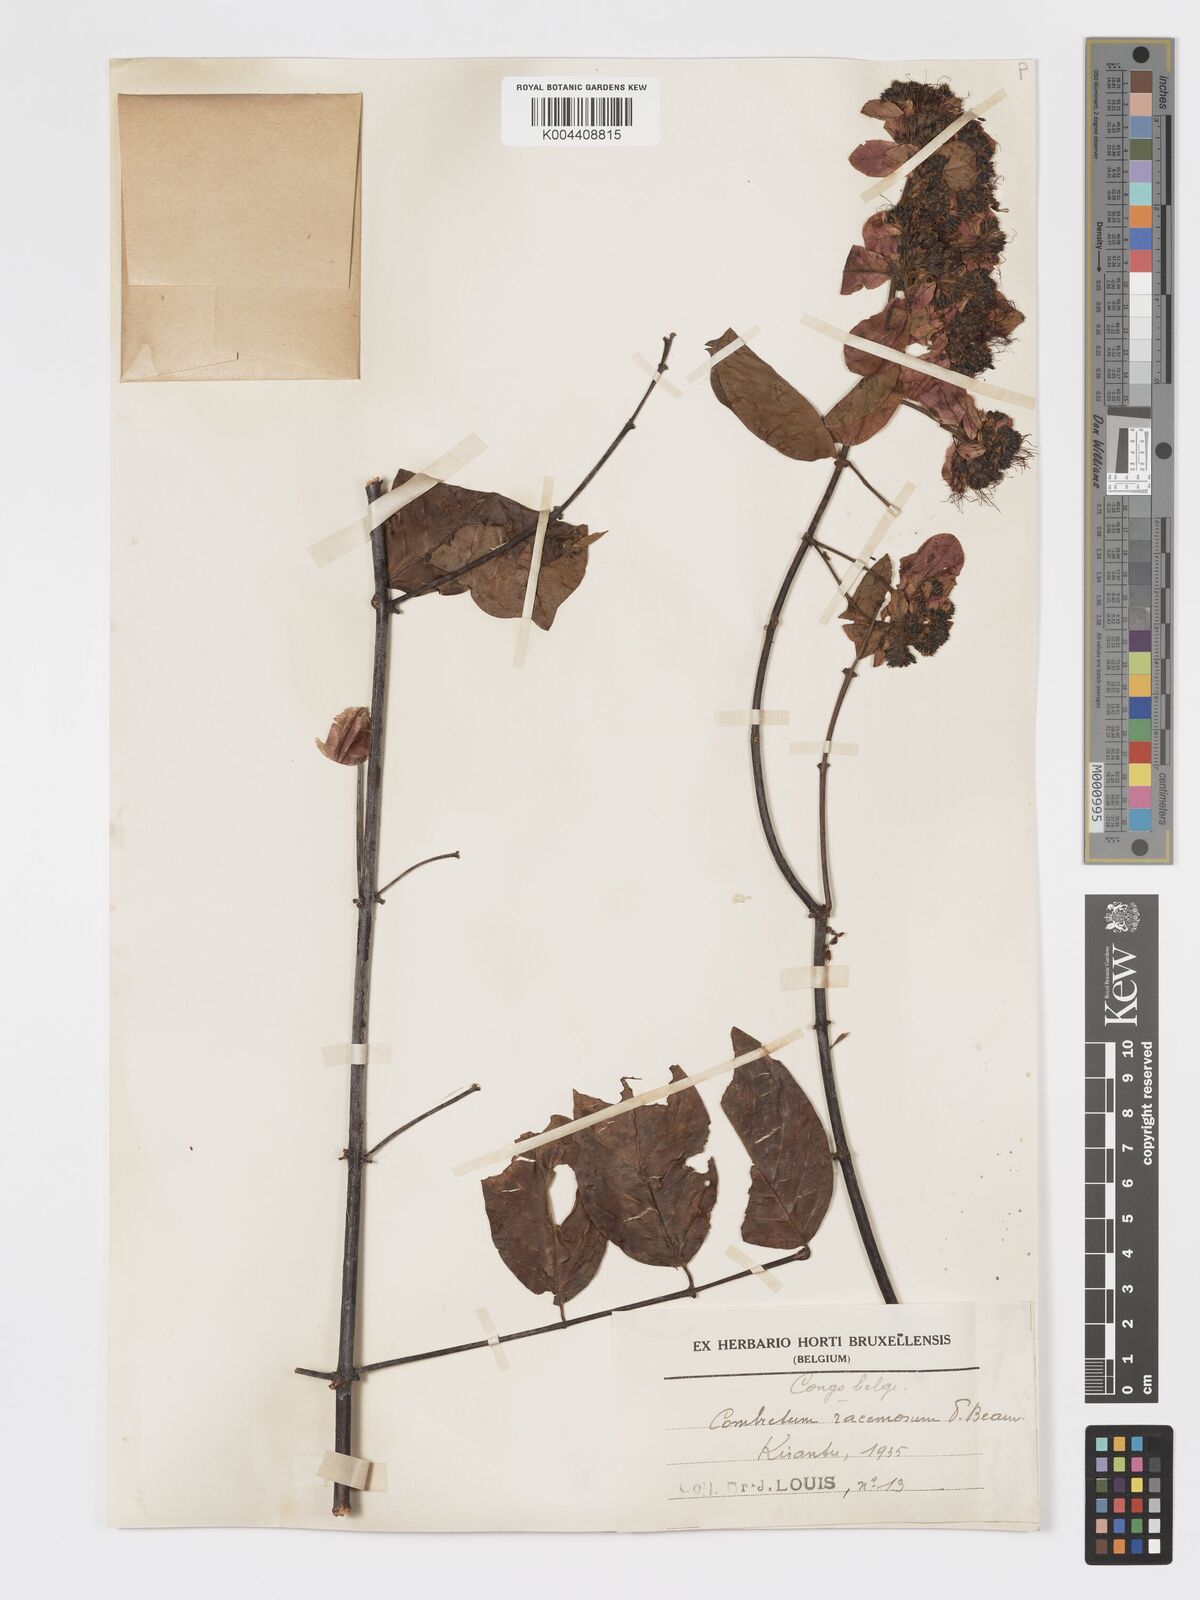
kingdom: Plantae
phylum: Tracheophyta
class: Magnoliopsida
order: Myrtales
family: Combretaceae
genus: Combretum
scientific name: Combretum racemosum
